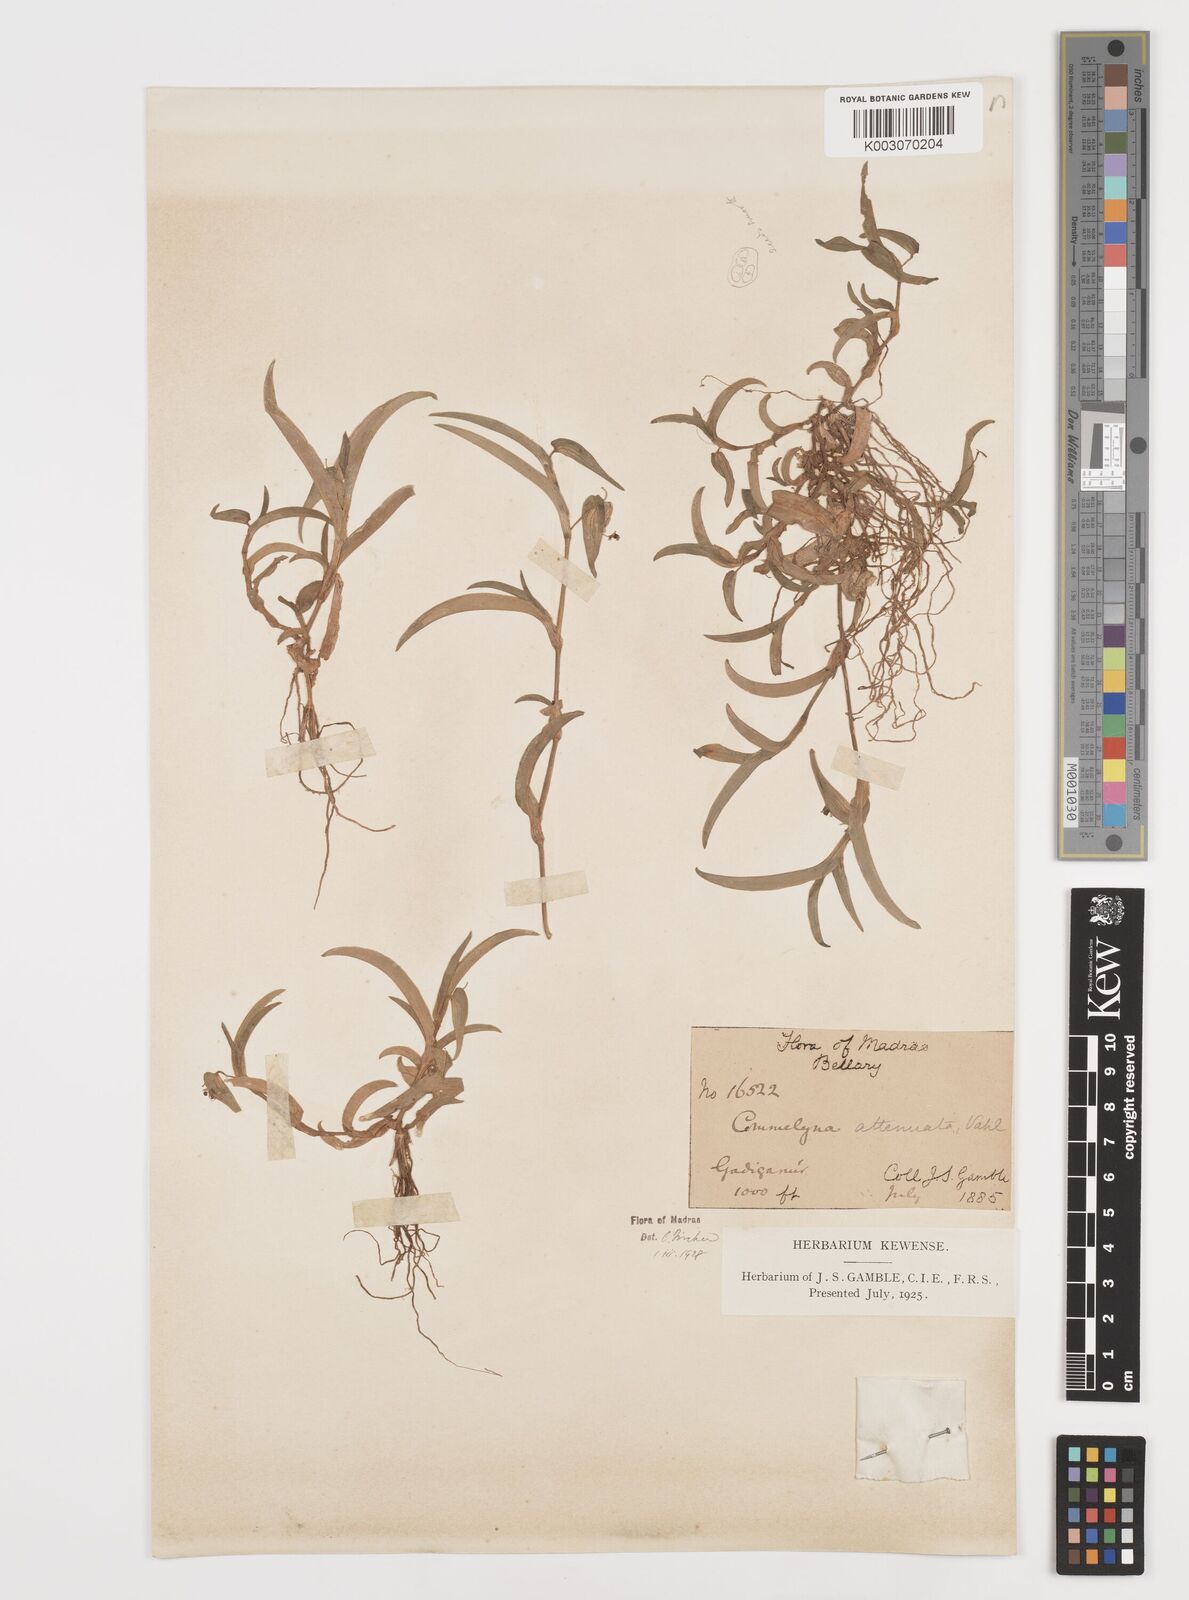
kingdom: Plantae
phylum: Tracheophyta
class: Liliopsida
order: Commelinales
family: Commelinaceae
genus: Commelina
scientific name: Commelina attenuata
